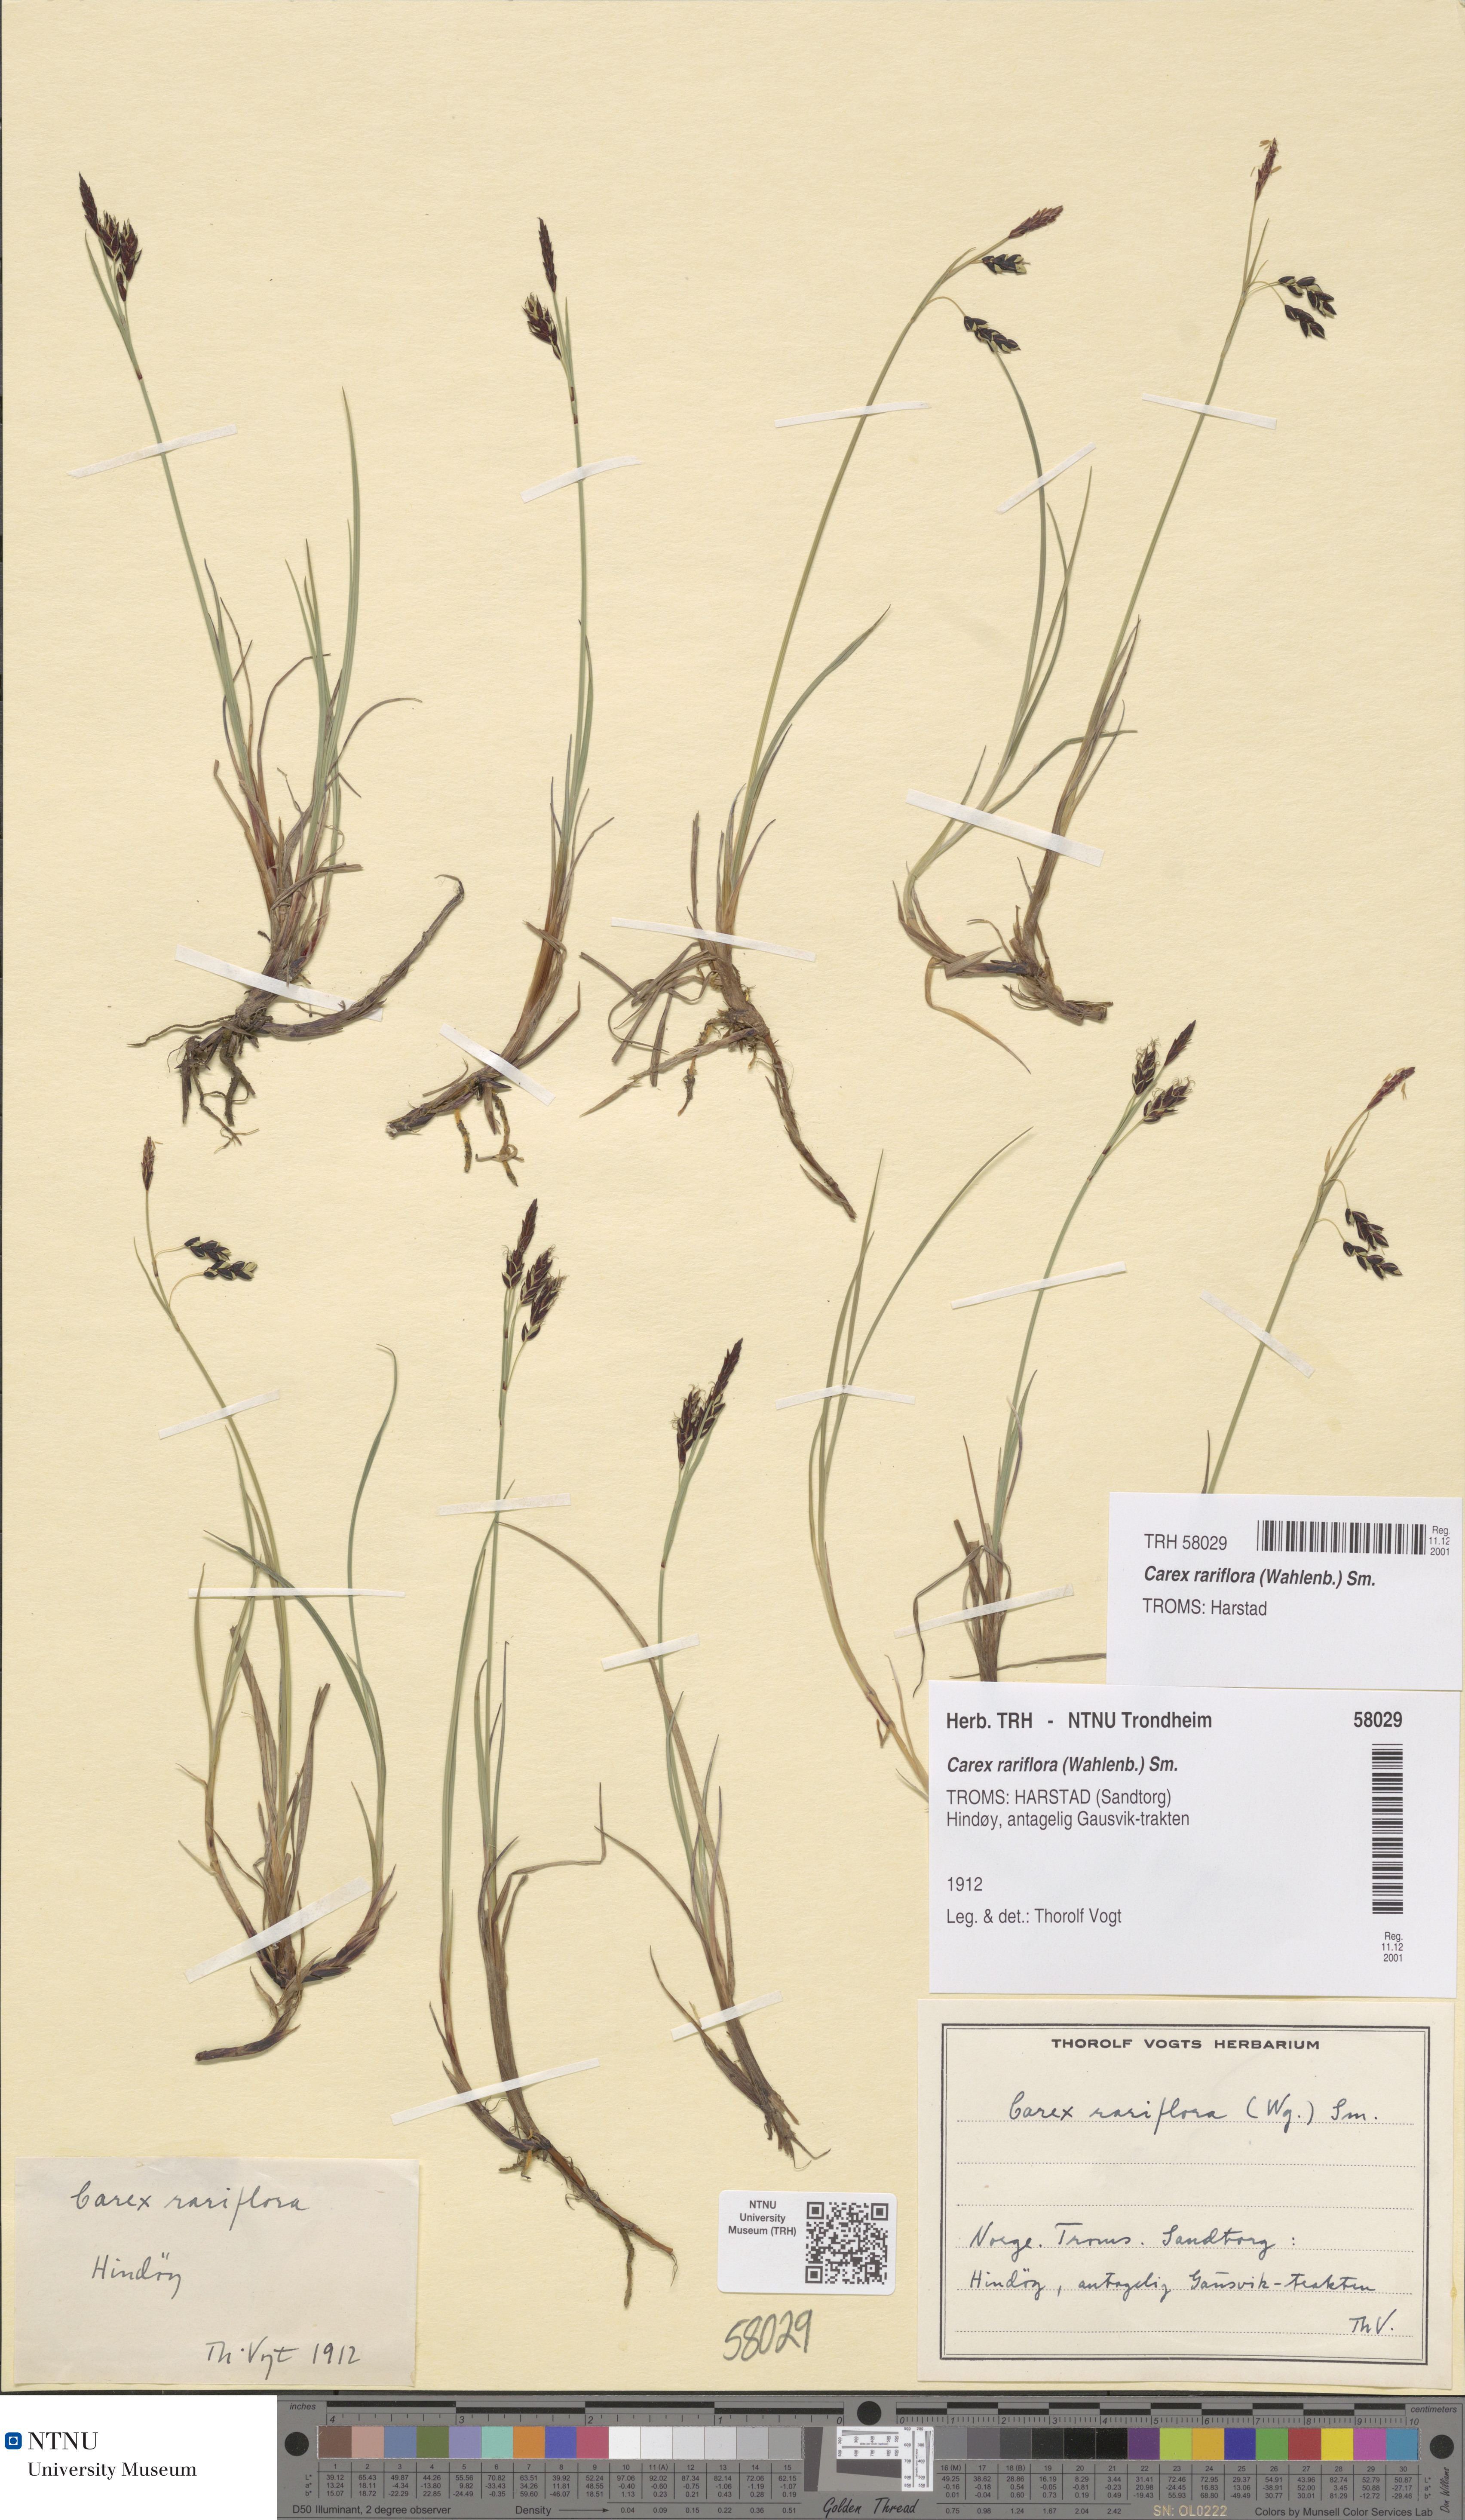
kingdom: Plantae
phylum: Tracheophyta
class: Liliopsida
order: Poales
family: Cyperaceae
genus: Carex
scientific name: Carex rariflora
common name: Loose-flowered alpine sedge
